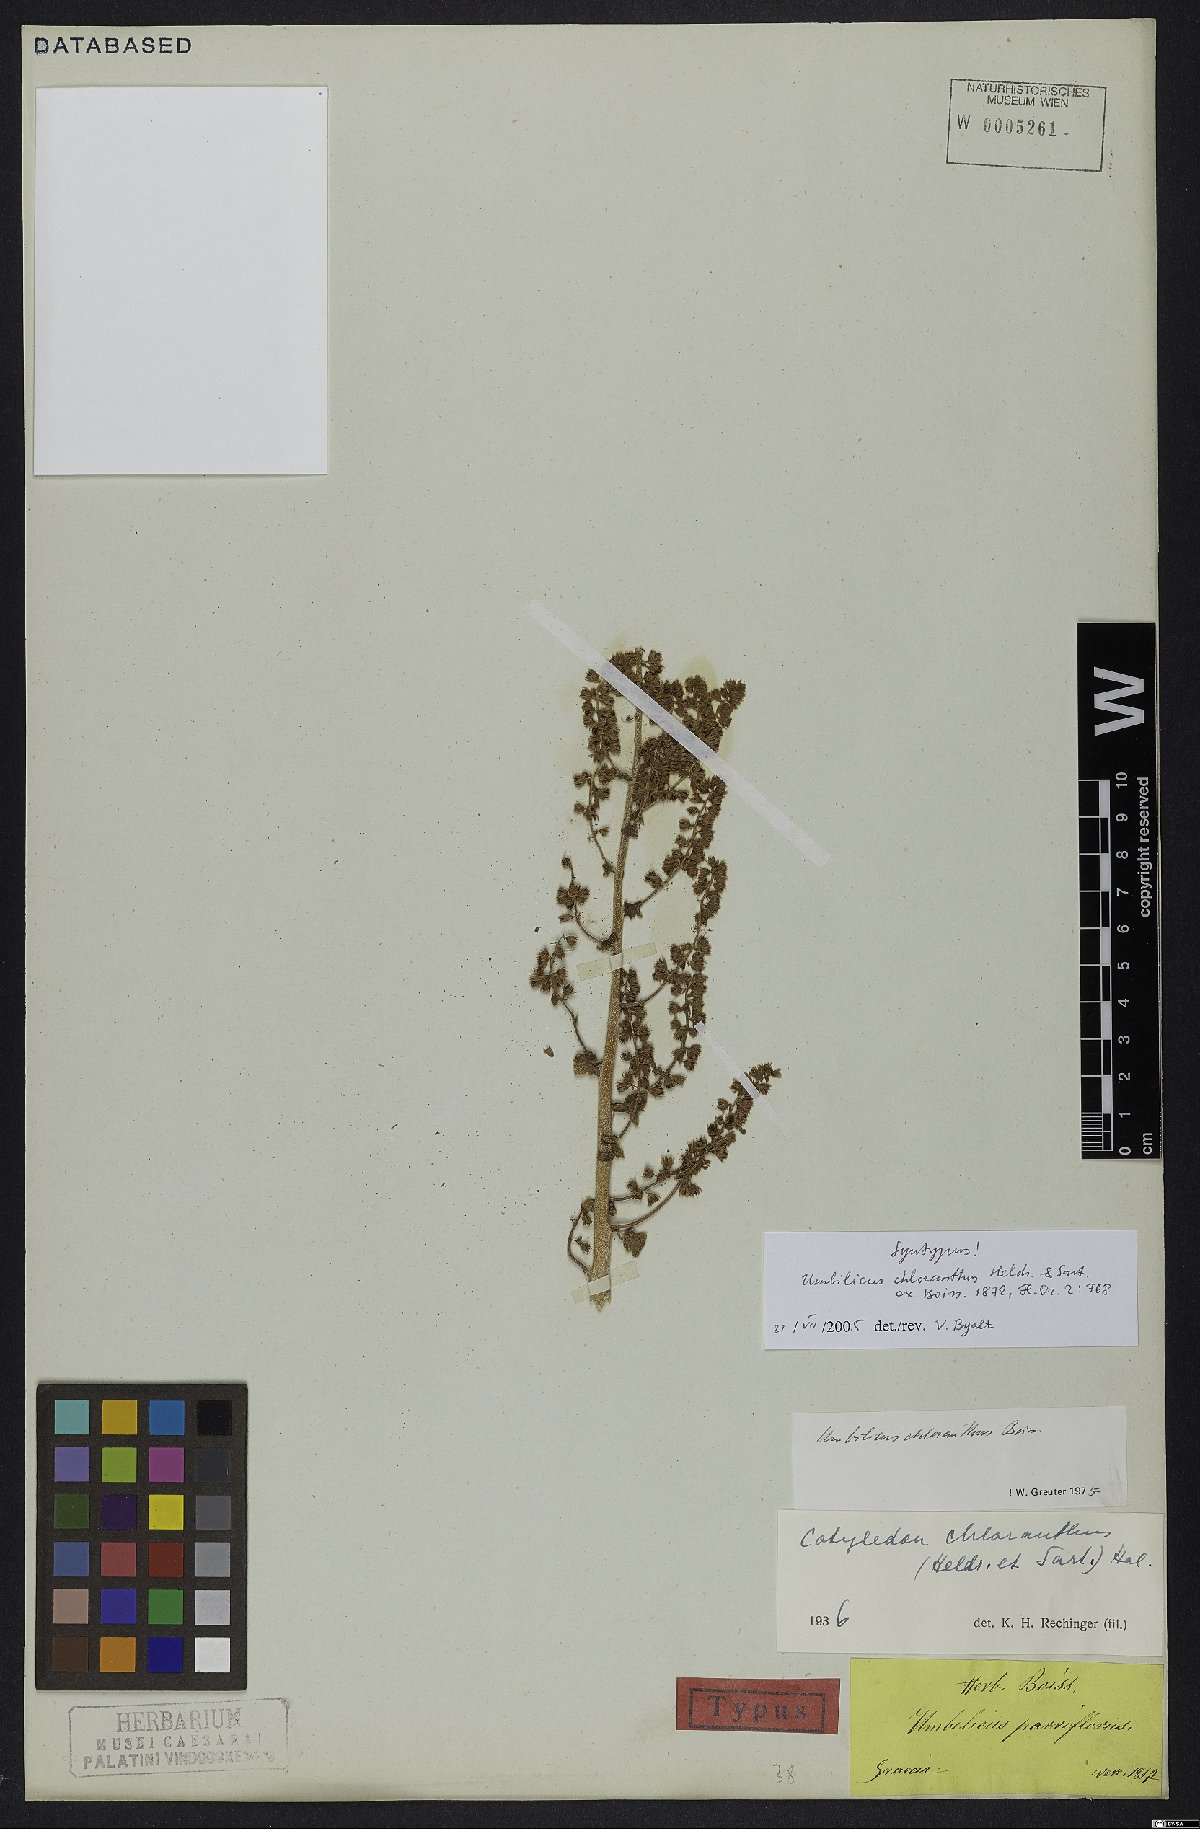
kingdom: Plantae
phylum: Tracheophyta
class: Magnoliopsida
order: Saxifragales
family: Crassulaceae
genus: Umbilicus
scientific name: Umbilicus chloranthus
